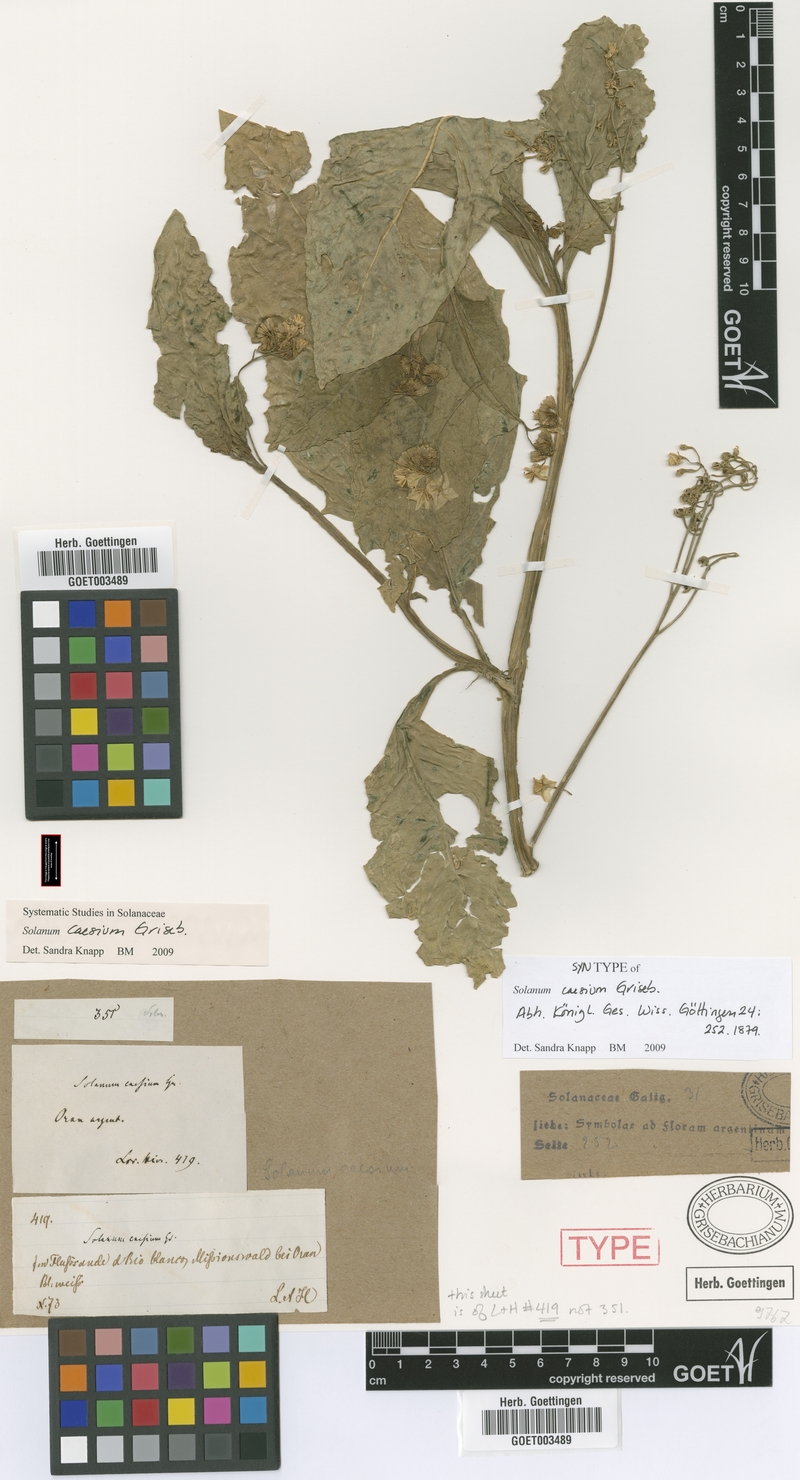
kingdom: Plantae
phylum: Tracheophyta
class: Magnoliopsida
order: Solanales
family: Solanaceae
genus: Solanum
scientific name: Solanum caesium
